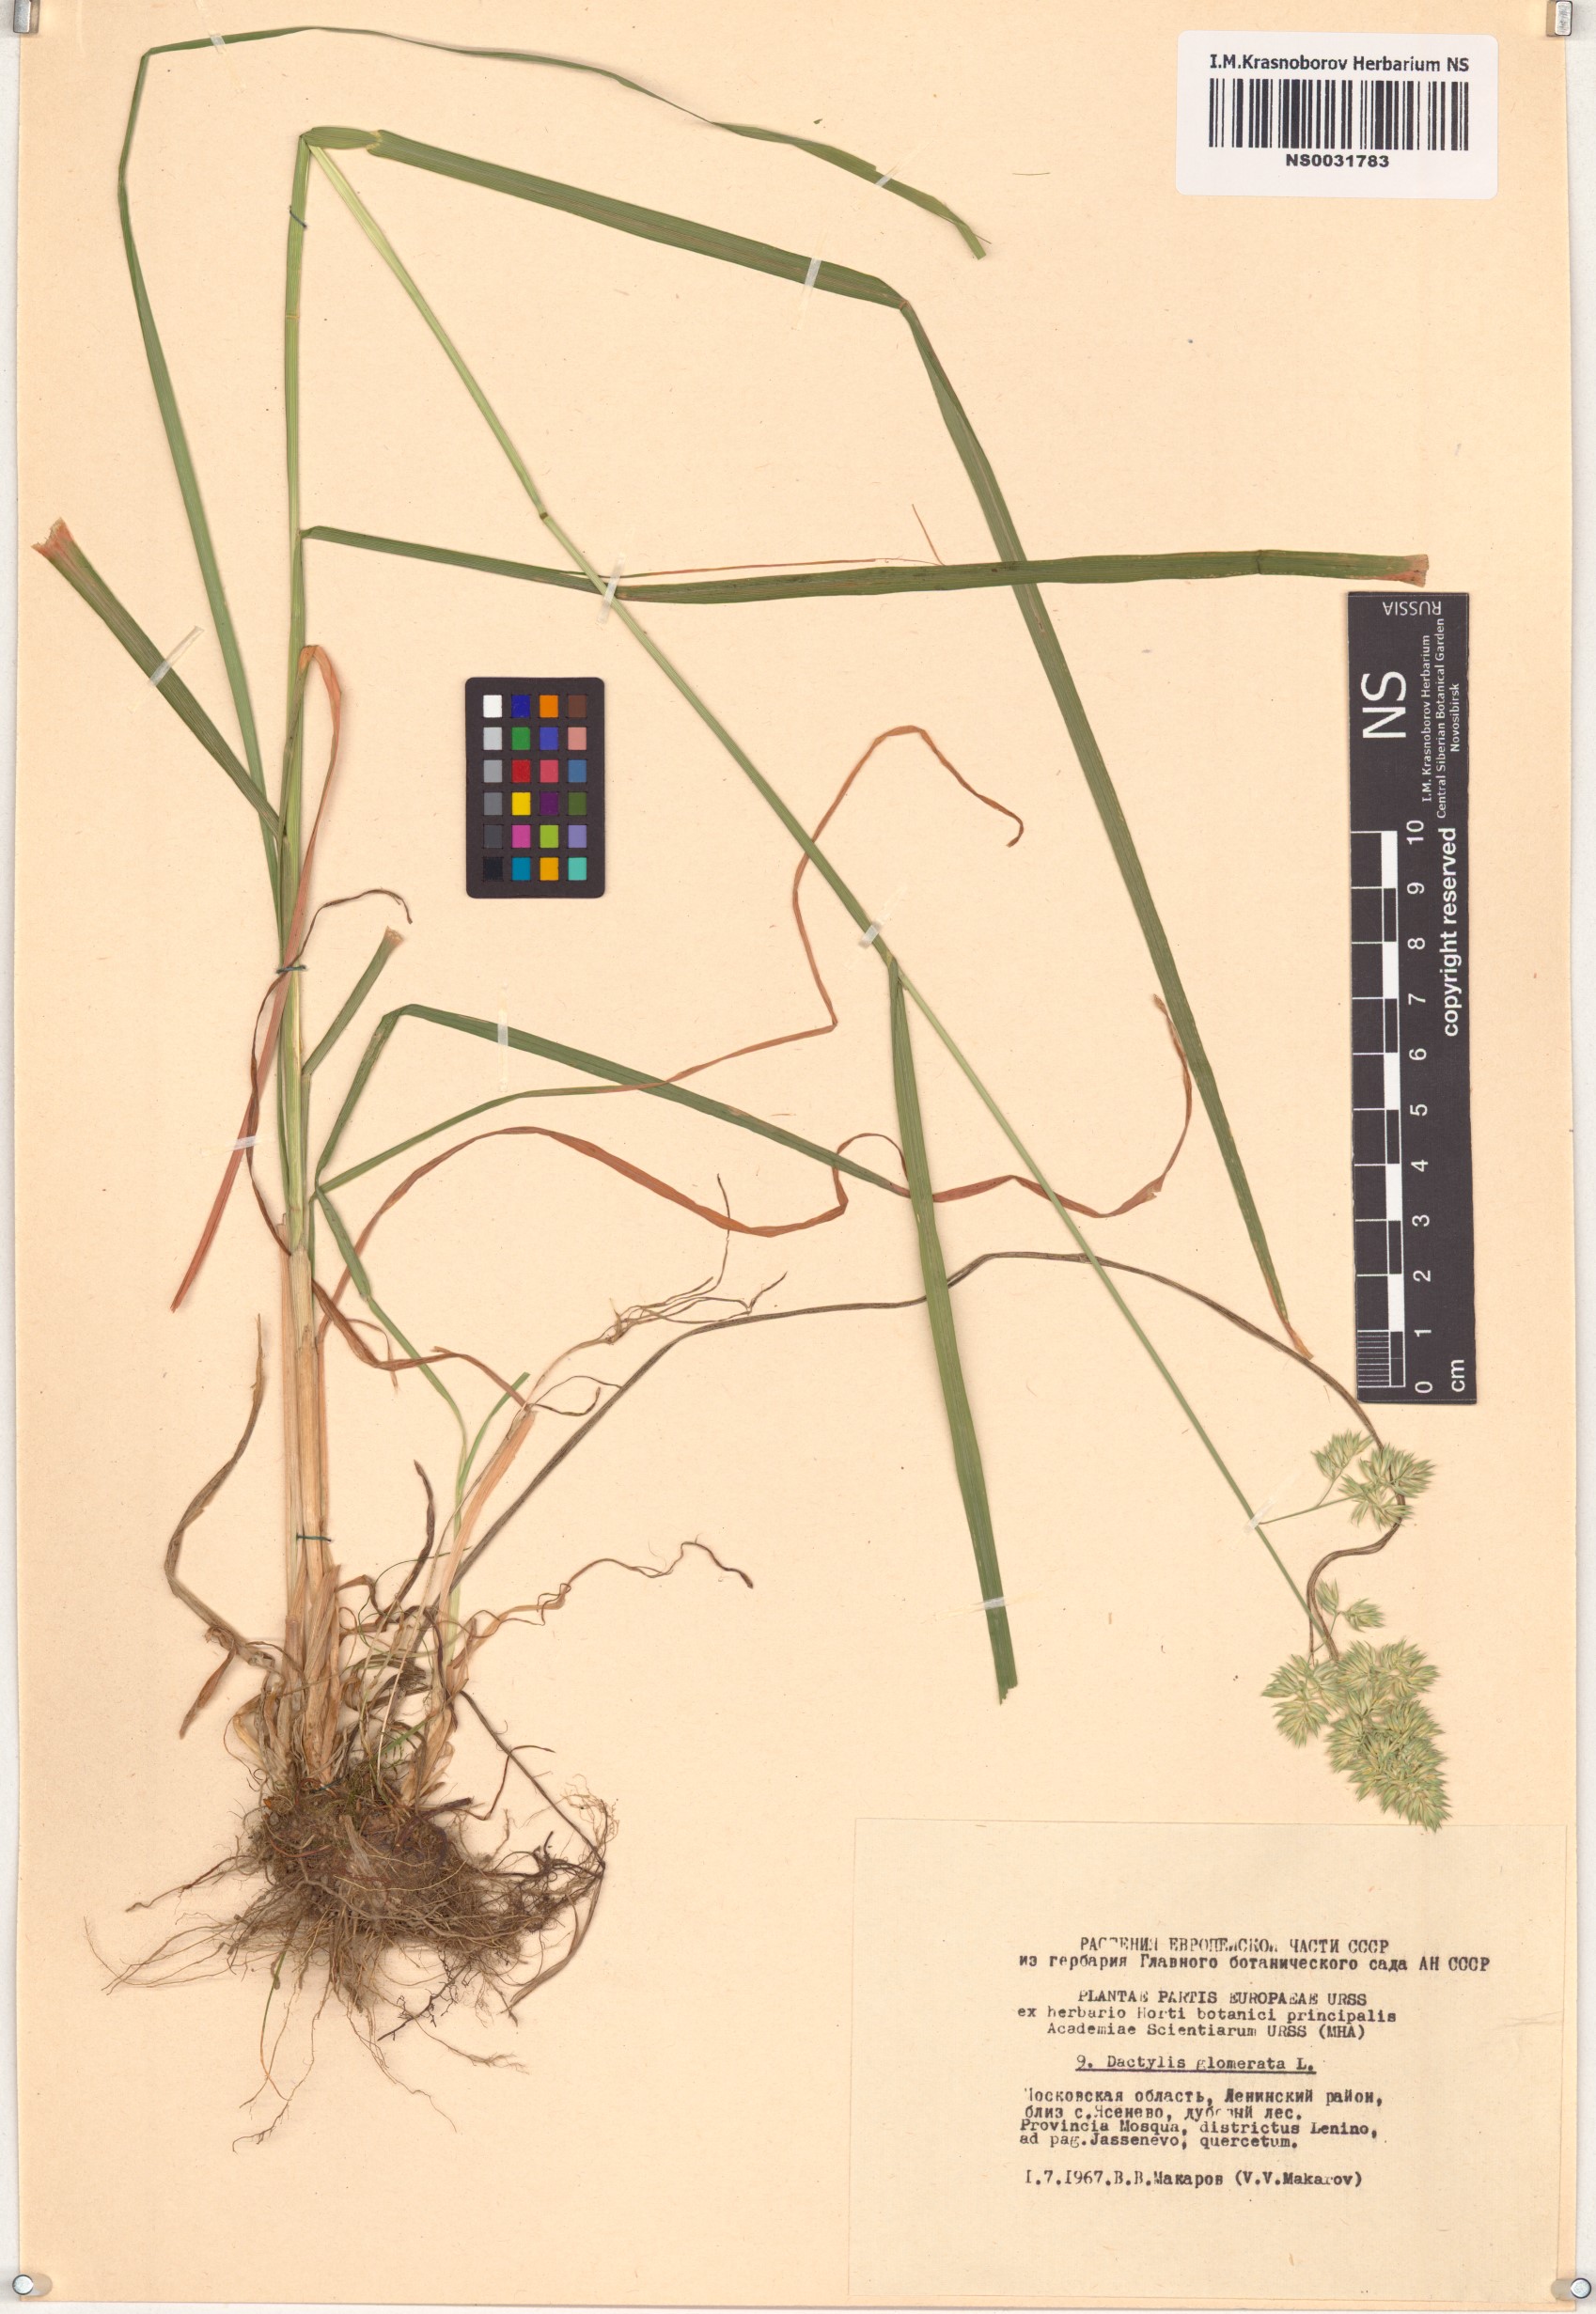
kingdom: Plantae
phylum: Tracheophyta
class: Liliopsida
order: Poales
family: Poaceae
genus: Dactylis
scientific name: Dactylis glomerata
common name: Orchardgrass
